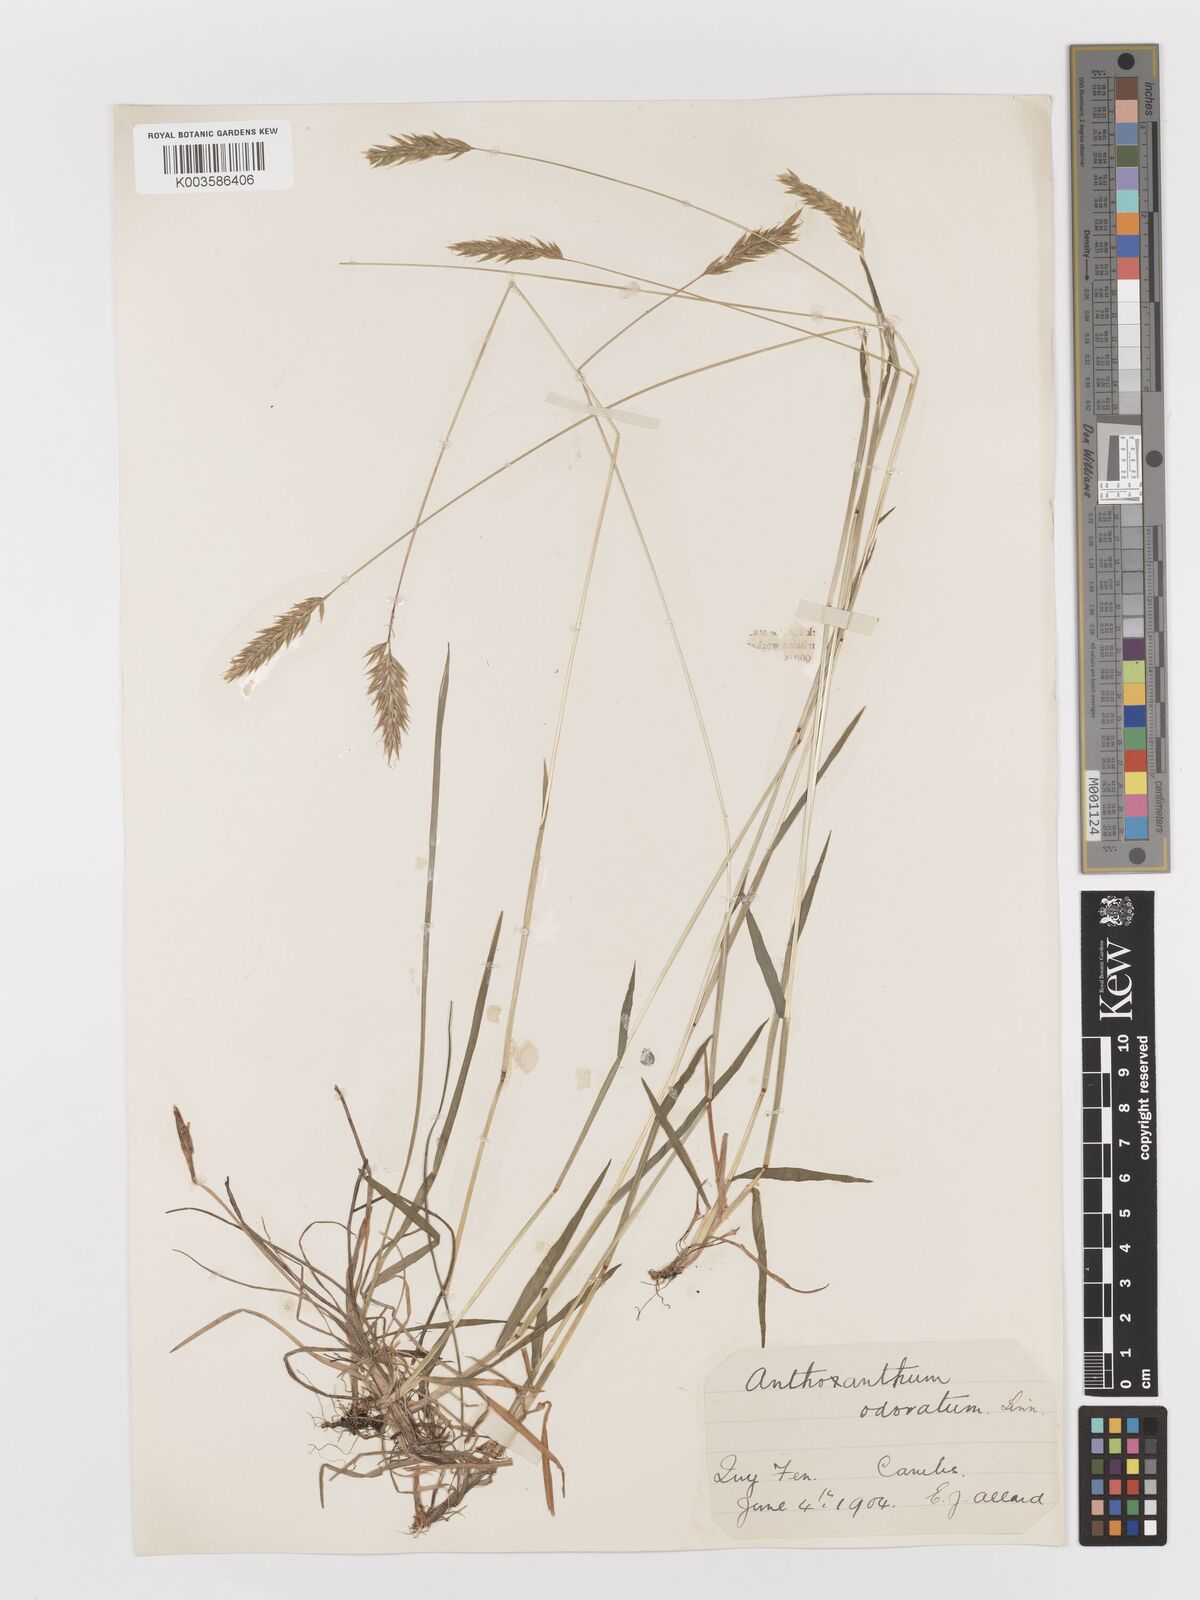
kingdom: Plantae
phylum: Tracheophyta
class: Liliopsida
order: Poales
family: Poaceae
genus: Anthoxanthum
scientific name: Anthoxanthum odoratum
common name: Sweet vernalgrass
